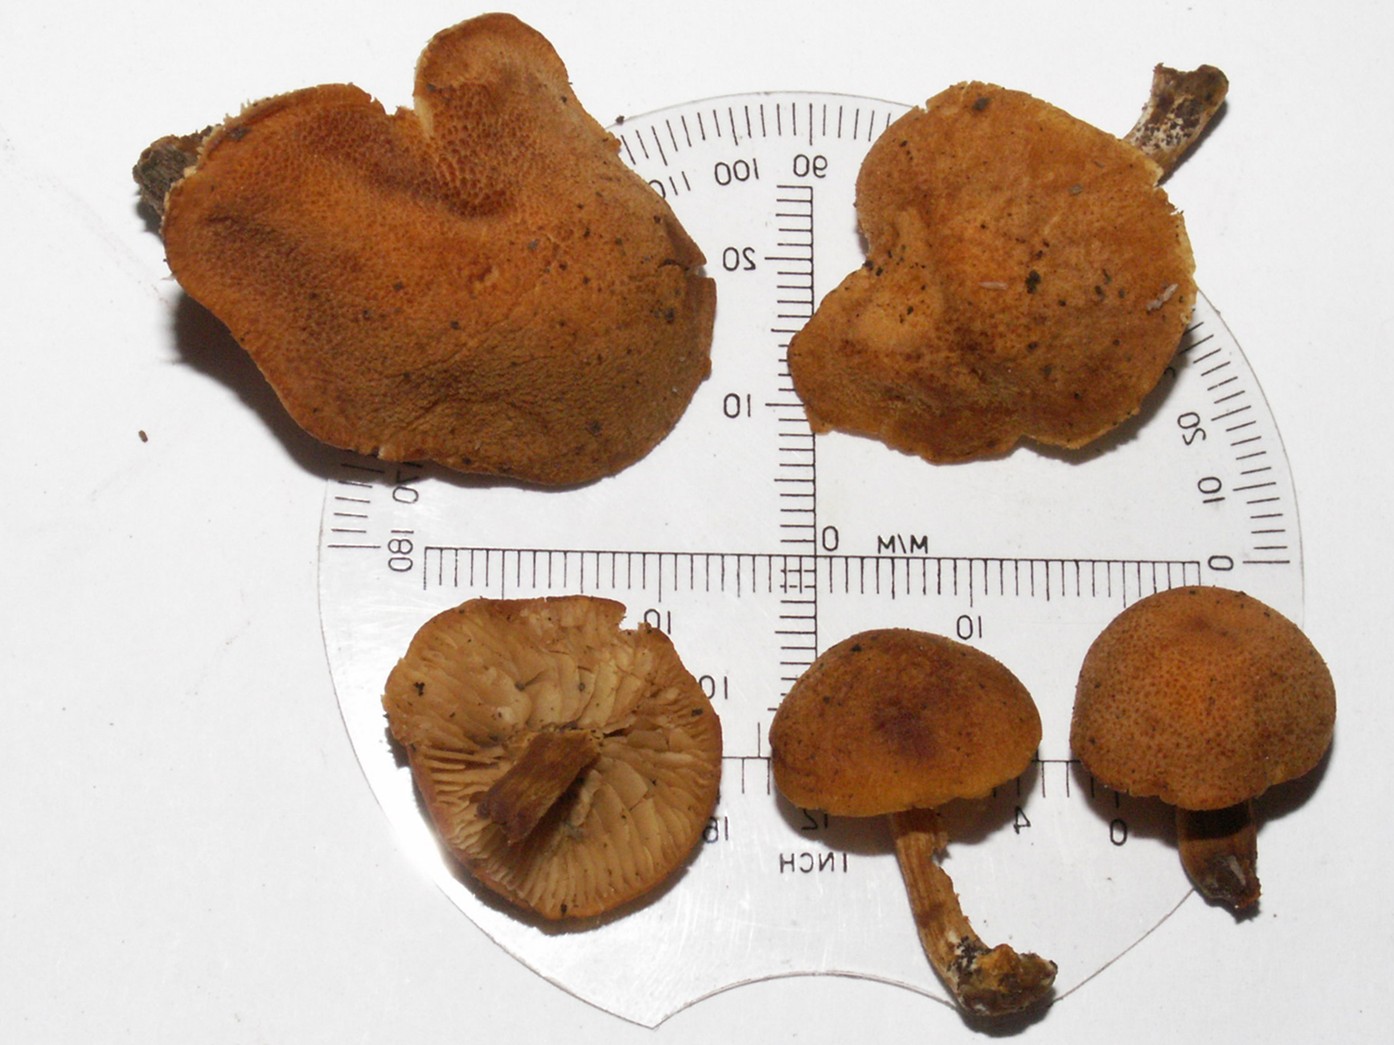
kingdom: Fungi
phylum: Basidiomycota
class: Agaricomycetes
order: Agaricales
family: Tubariaceae
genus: Flammulaster
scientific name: Flammulaster limulatus
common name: gylden grynskælhat
